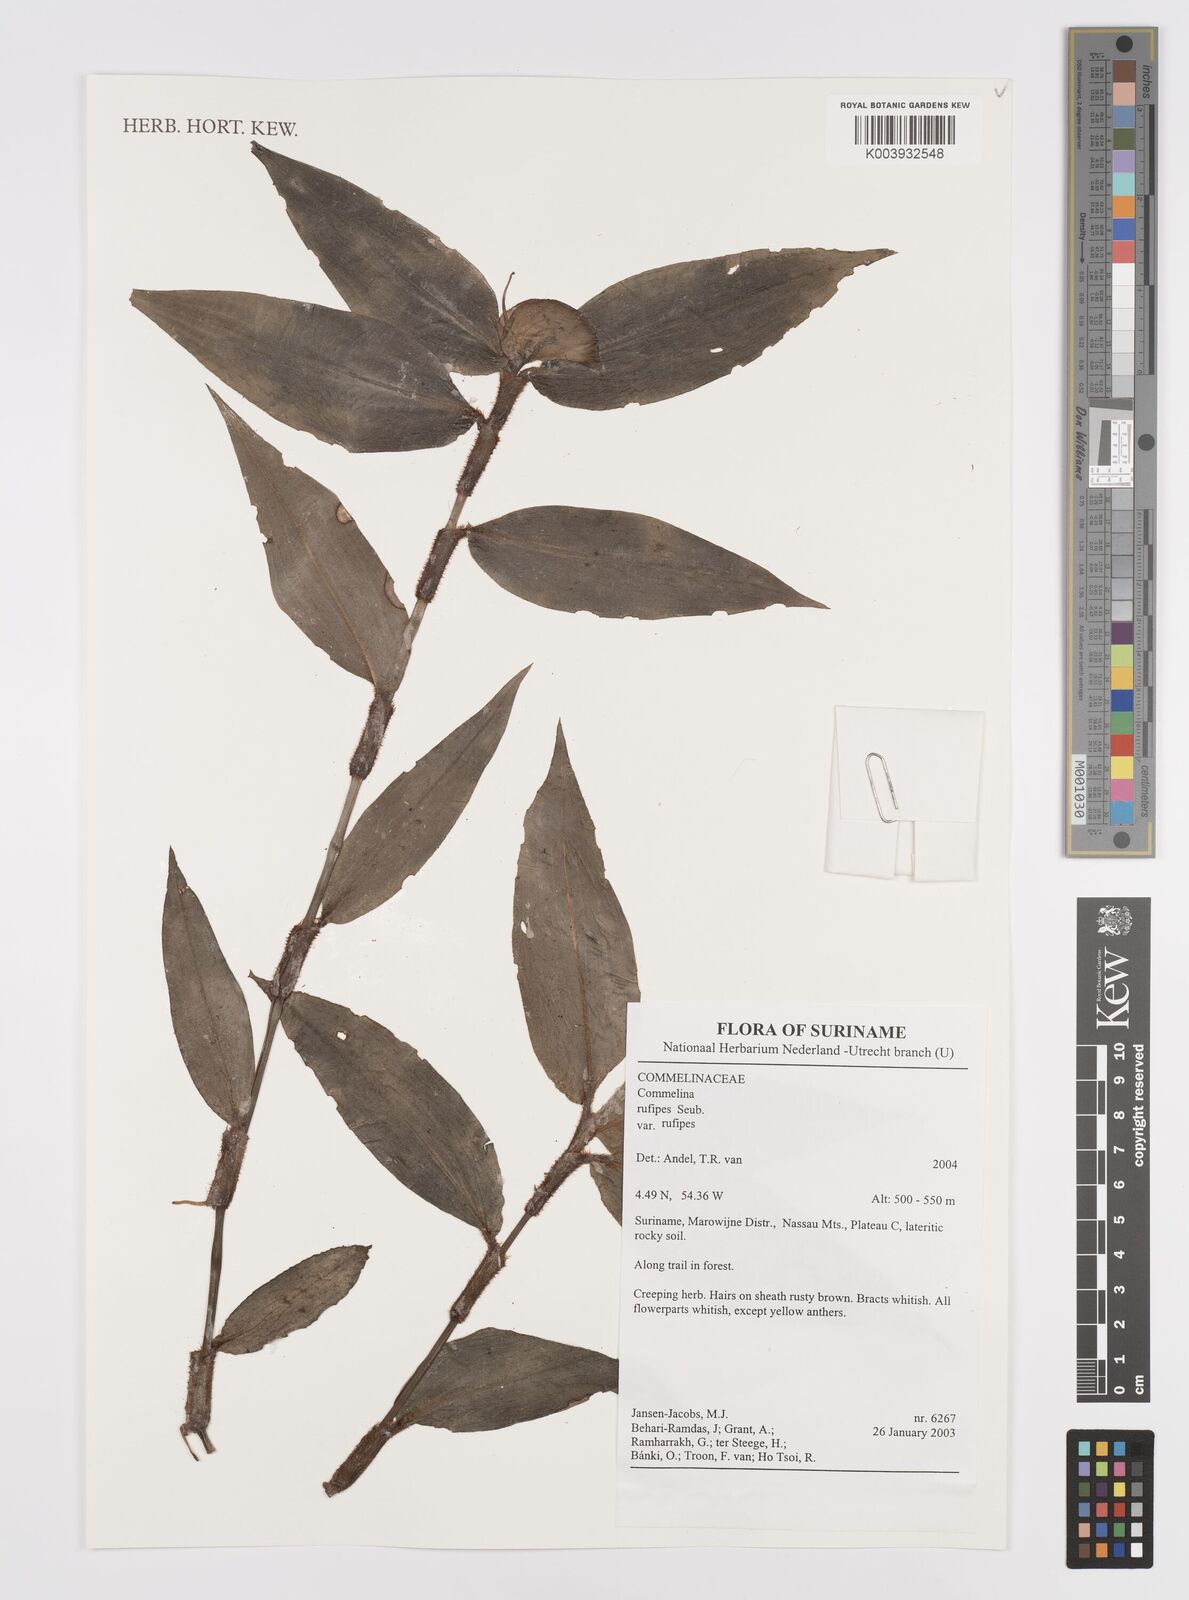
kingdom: Plantae
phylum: Tracheophyta
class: Liliopsida
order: Commelinales
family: Commelinaceae
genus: Commelina
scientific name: Commelina rufipes
